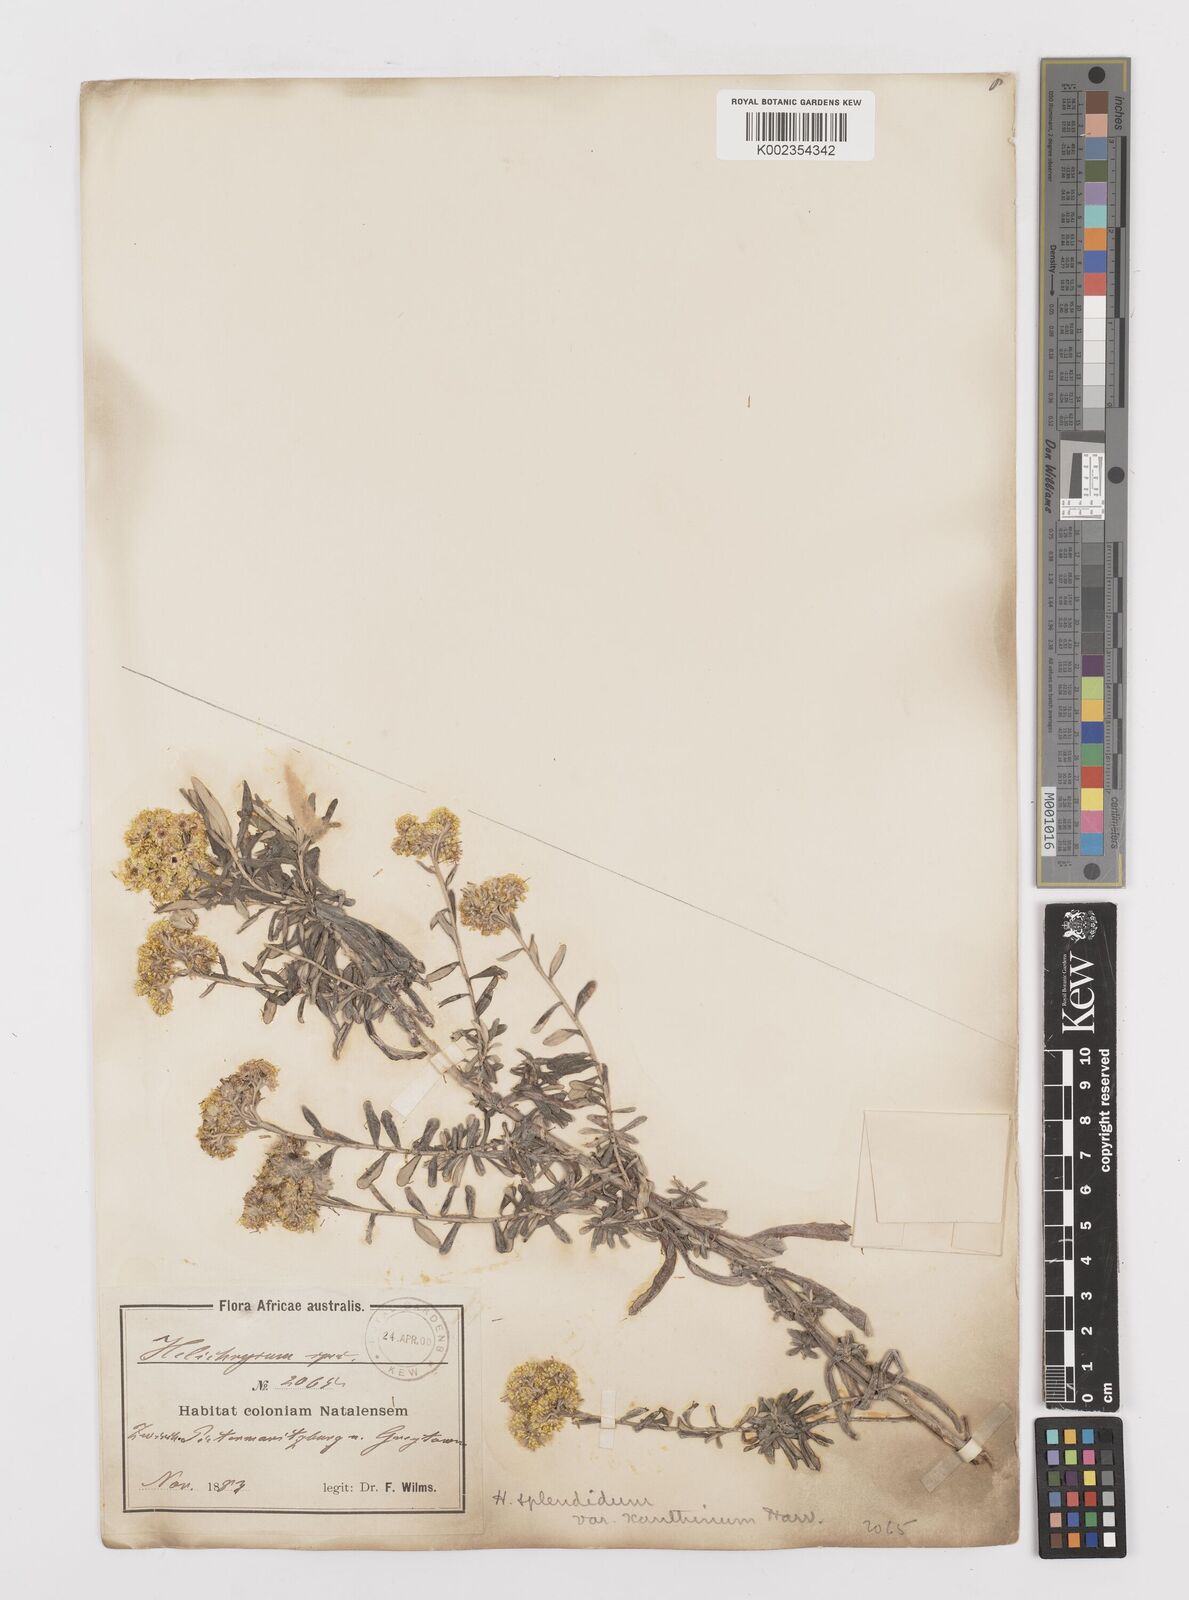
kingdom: Plantae
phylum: Tracheophyta
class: Magnoliopsida
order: Asterales
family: Asteraceae
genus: Helichrysum
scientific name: Helichrysum splendidum
